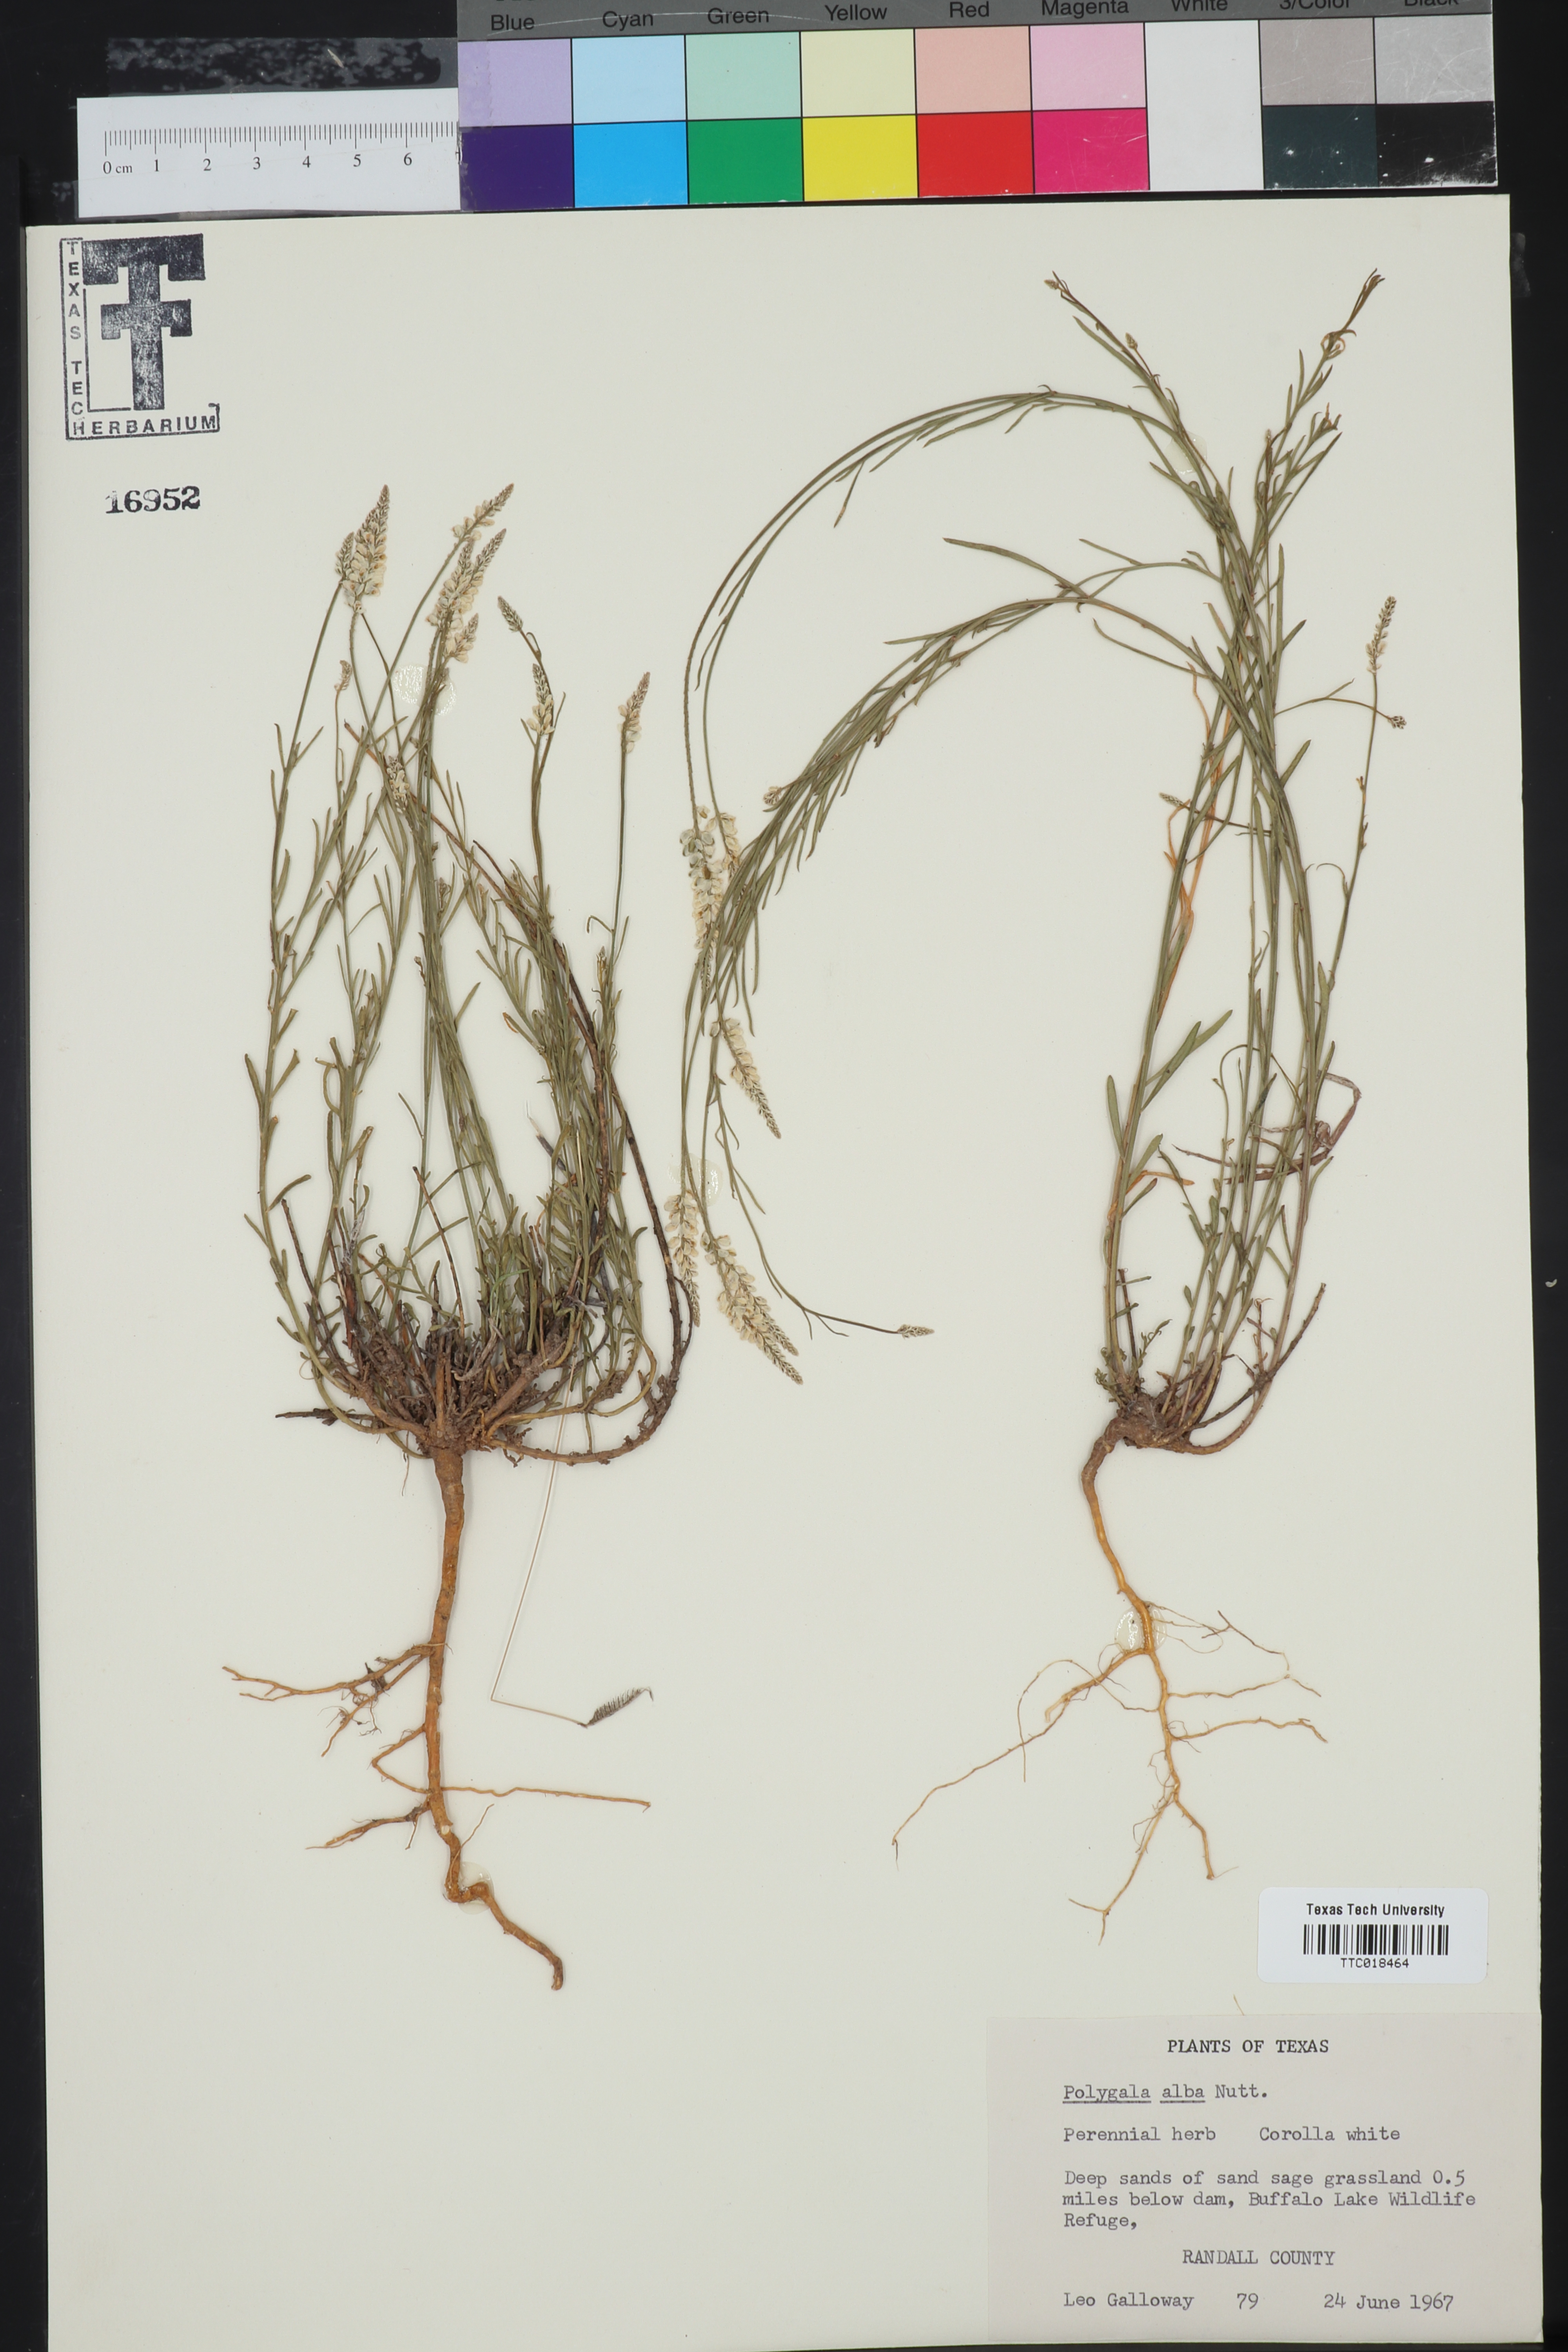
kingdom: Plantae
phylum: Tracheophyta
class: Magnoliopsida
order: Fabales
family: Polygalaceae
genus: Polygala
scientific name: Polygala alba
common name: White milkwort
